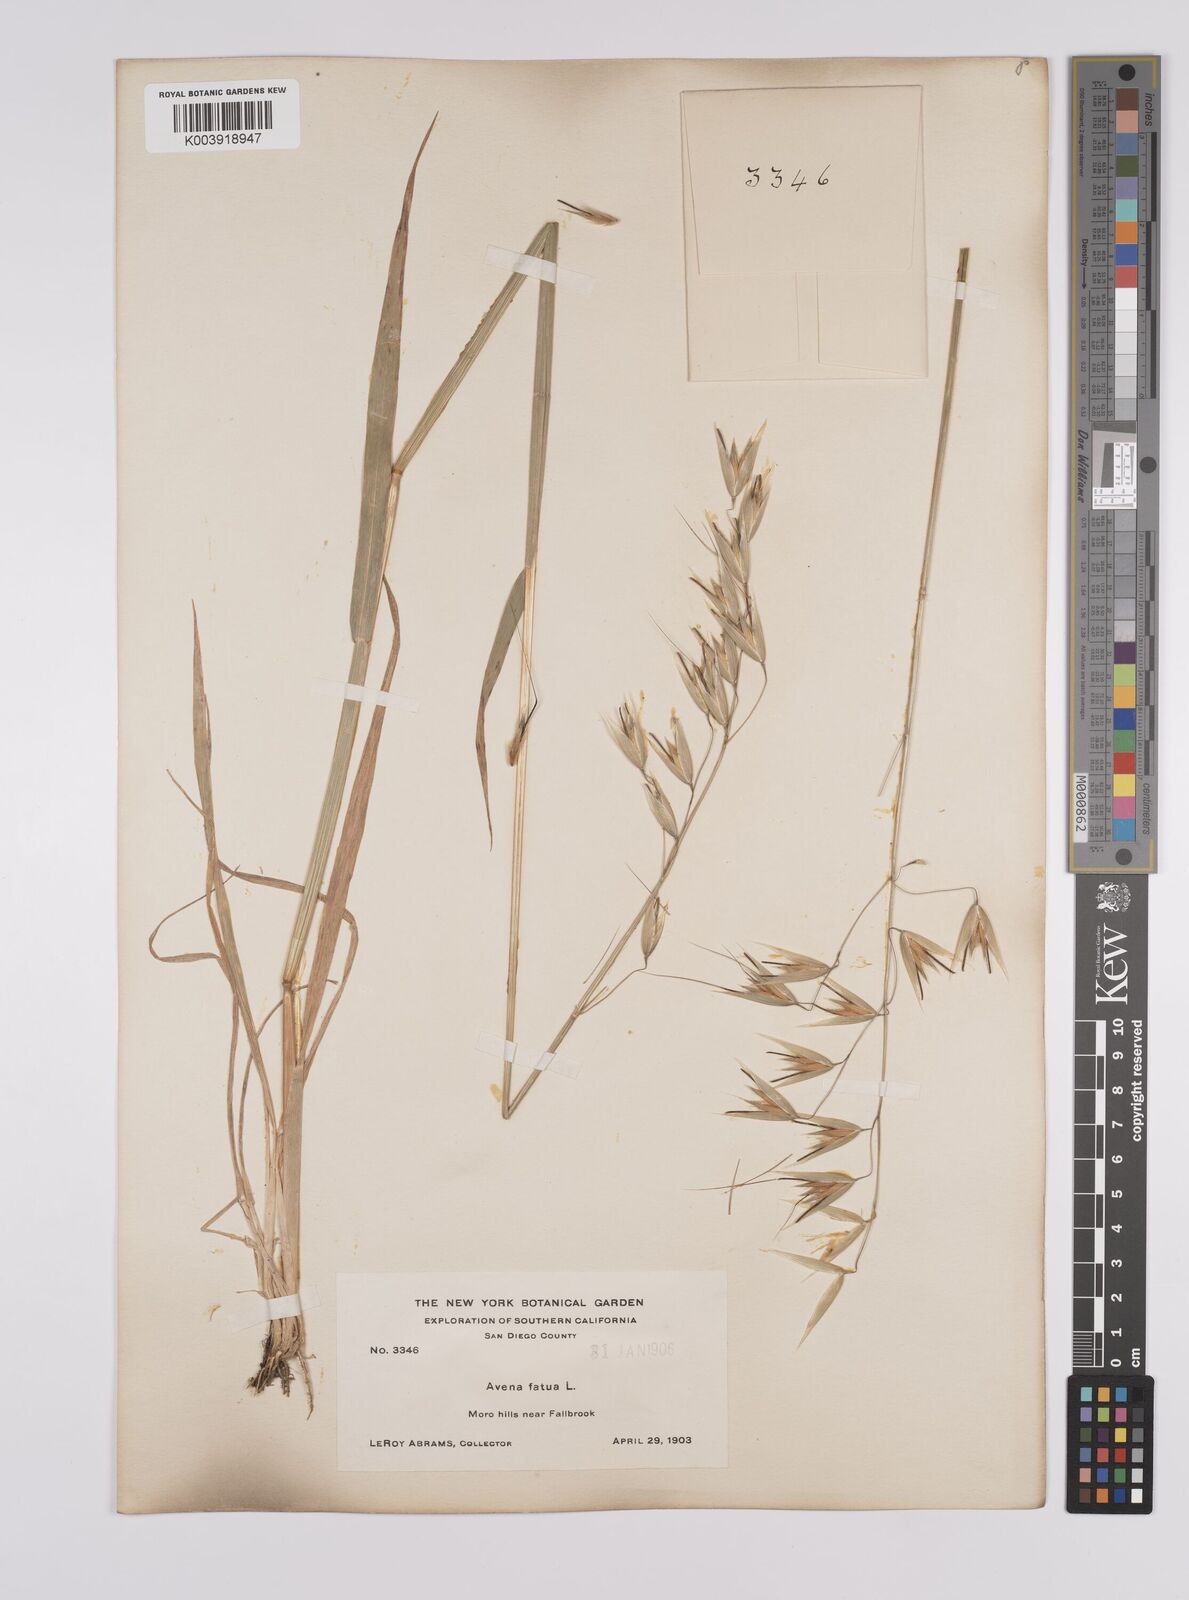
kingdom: Plantae
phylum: Tracheophyta
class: Liliopsida
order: Poales
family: Poaceae
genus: Avena
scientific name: Avena fatua
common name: Wild oat
